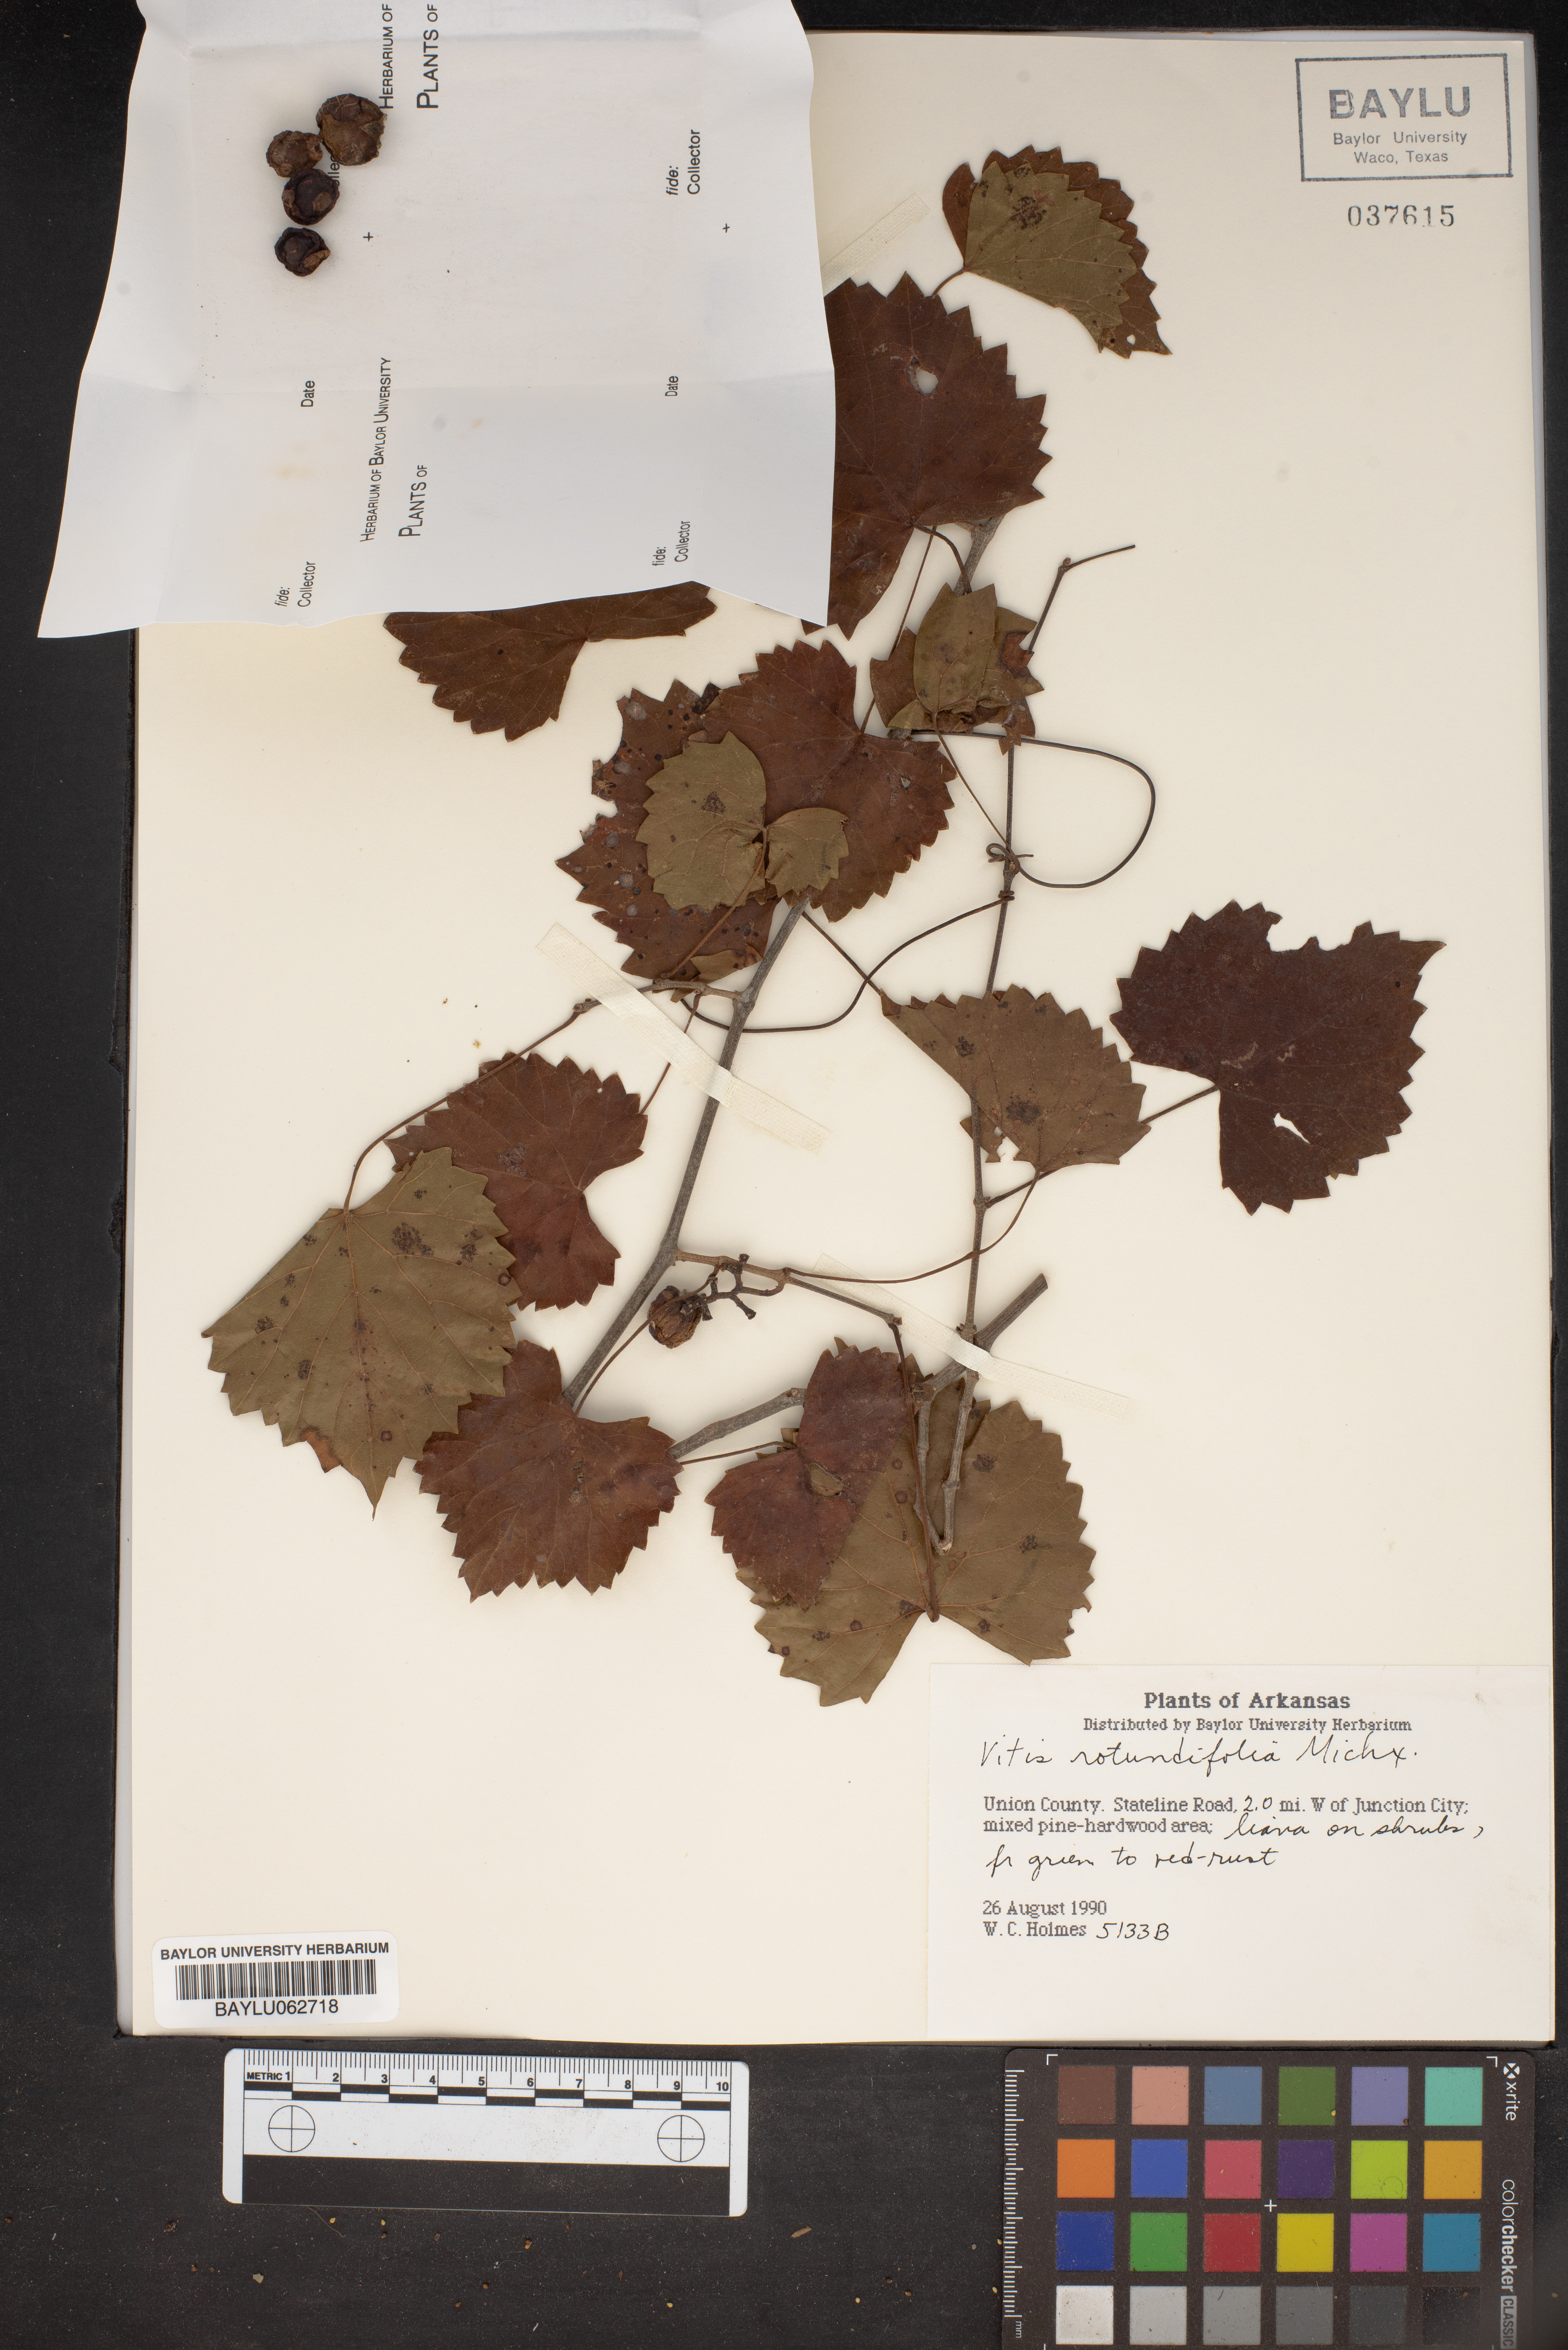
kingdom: Plantae
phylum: Tracheophyta
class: Magnoliopsida
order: Vitales
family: Vitaceae
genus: Vitis
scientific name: Vitis rotundifolia
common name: Muscadine grape
